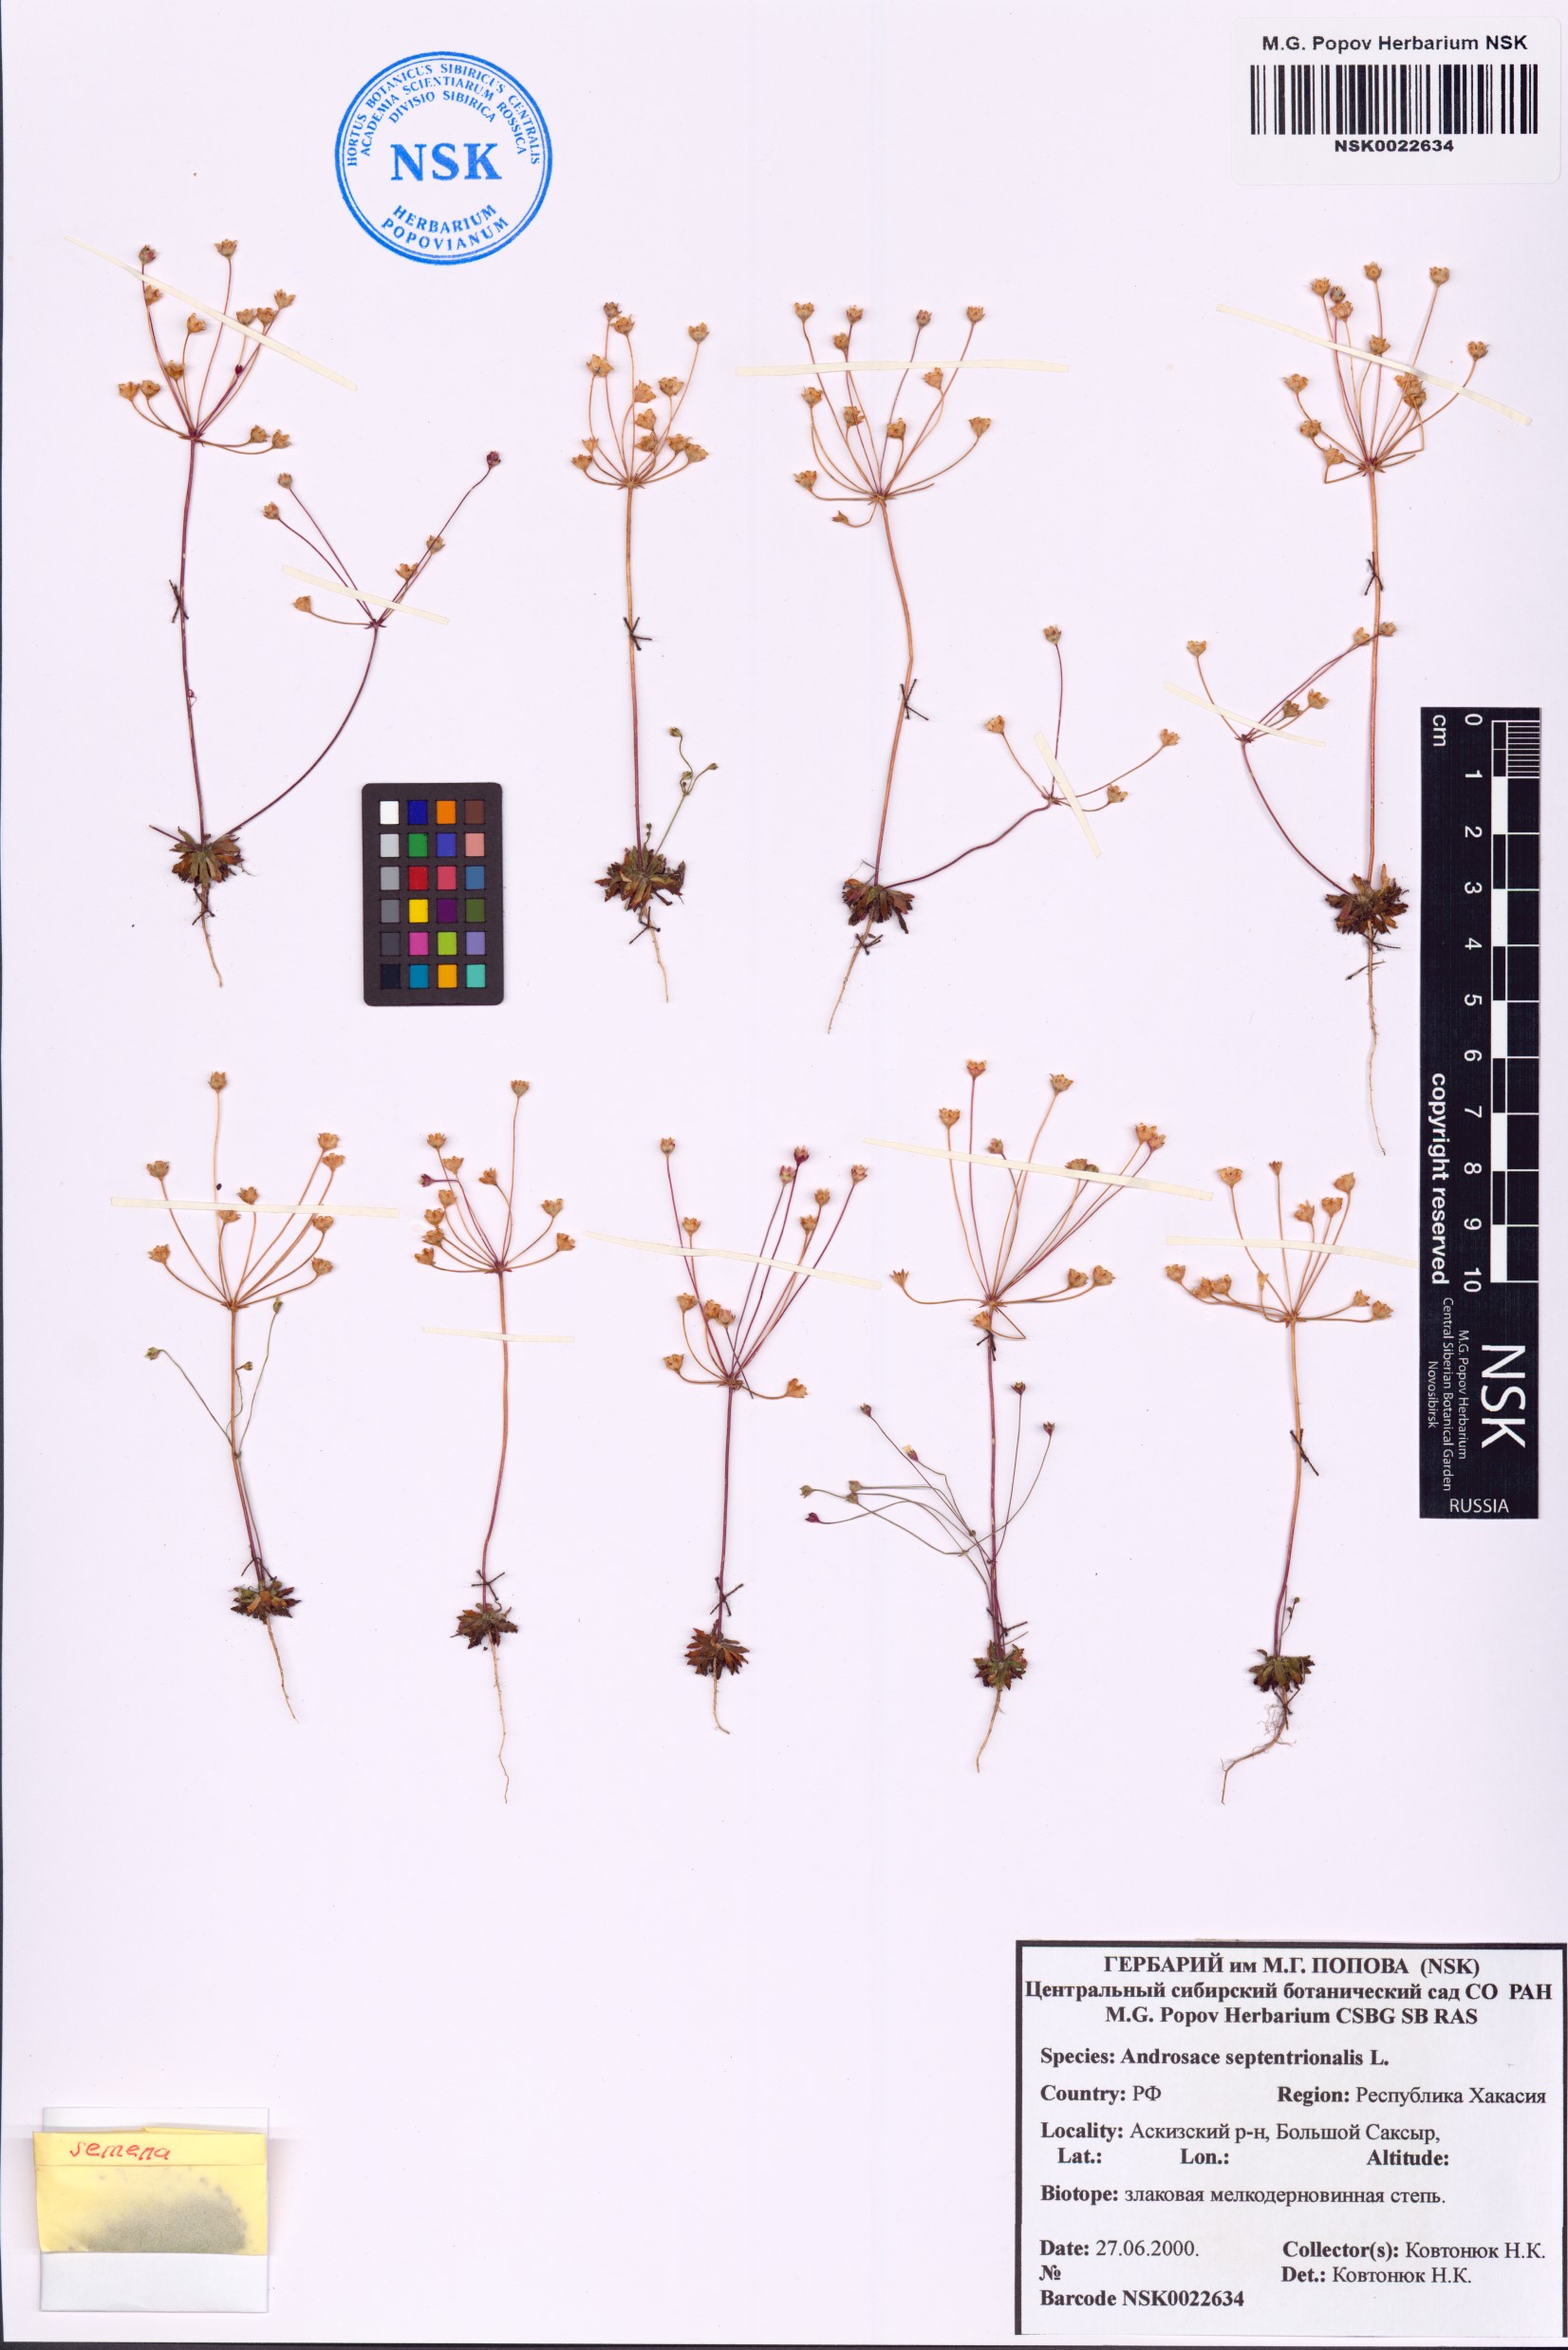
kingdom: Plantae
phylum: Tracheophyta
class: Magnoliopsida
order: Ericales
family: Primulaceae
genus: Androsace
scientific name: Androsace septentrionalis
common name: Hairy northern fairy-candelabra
